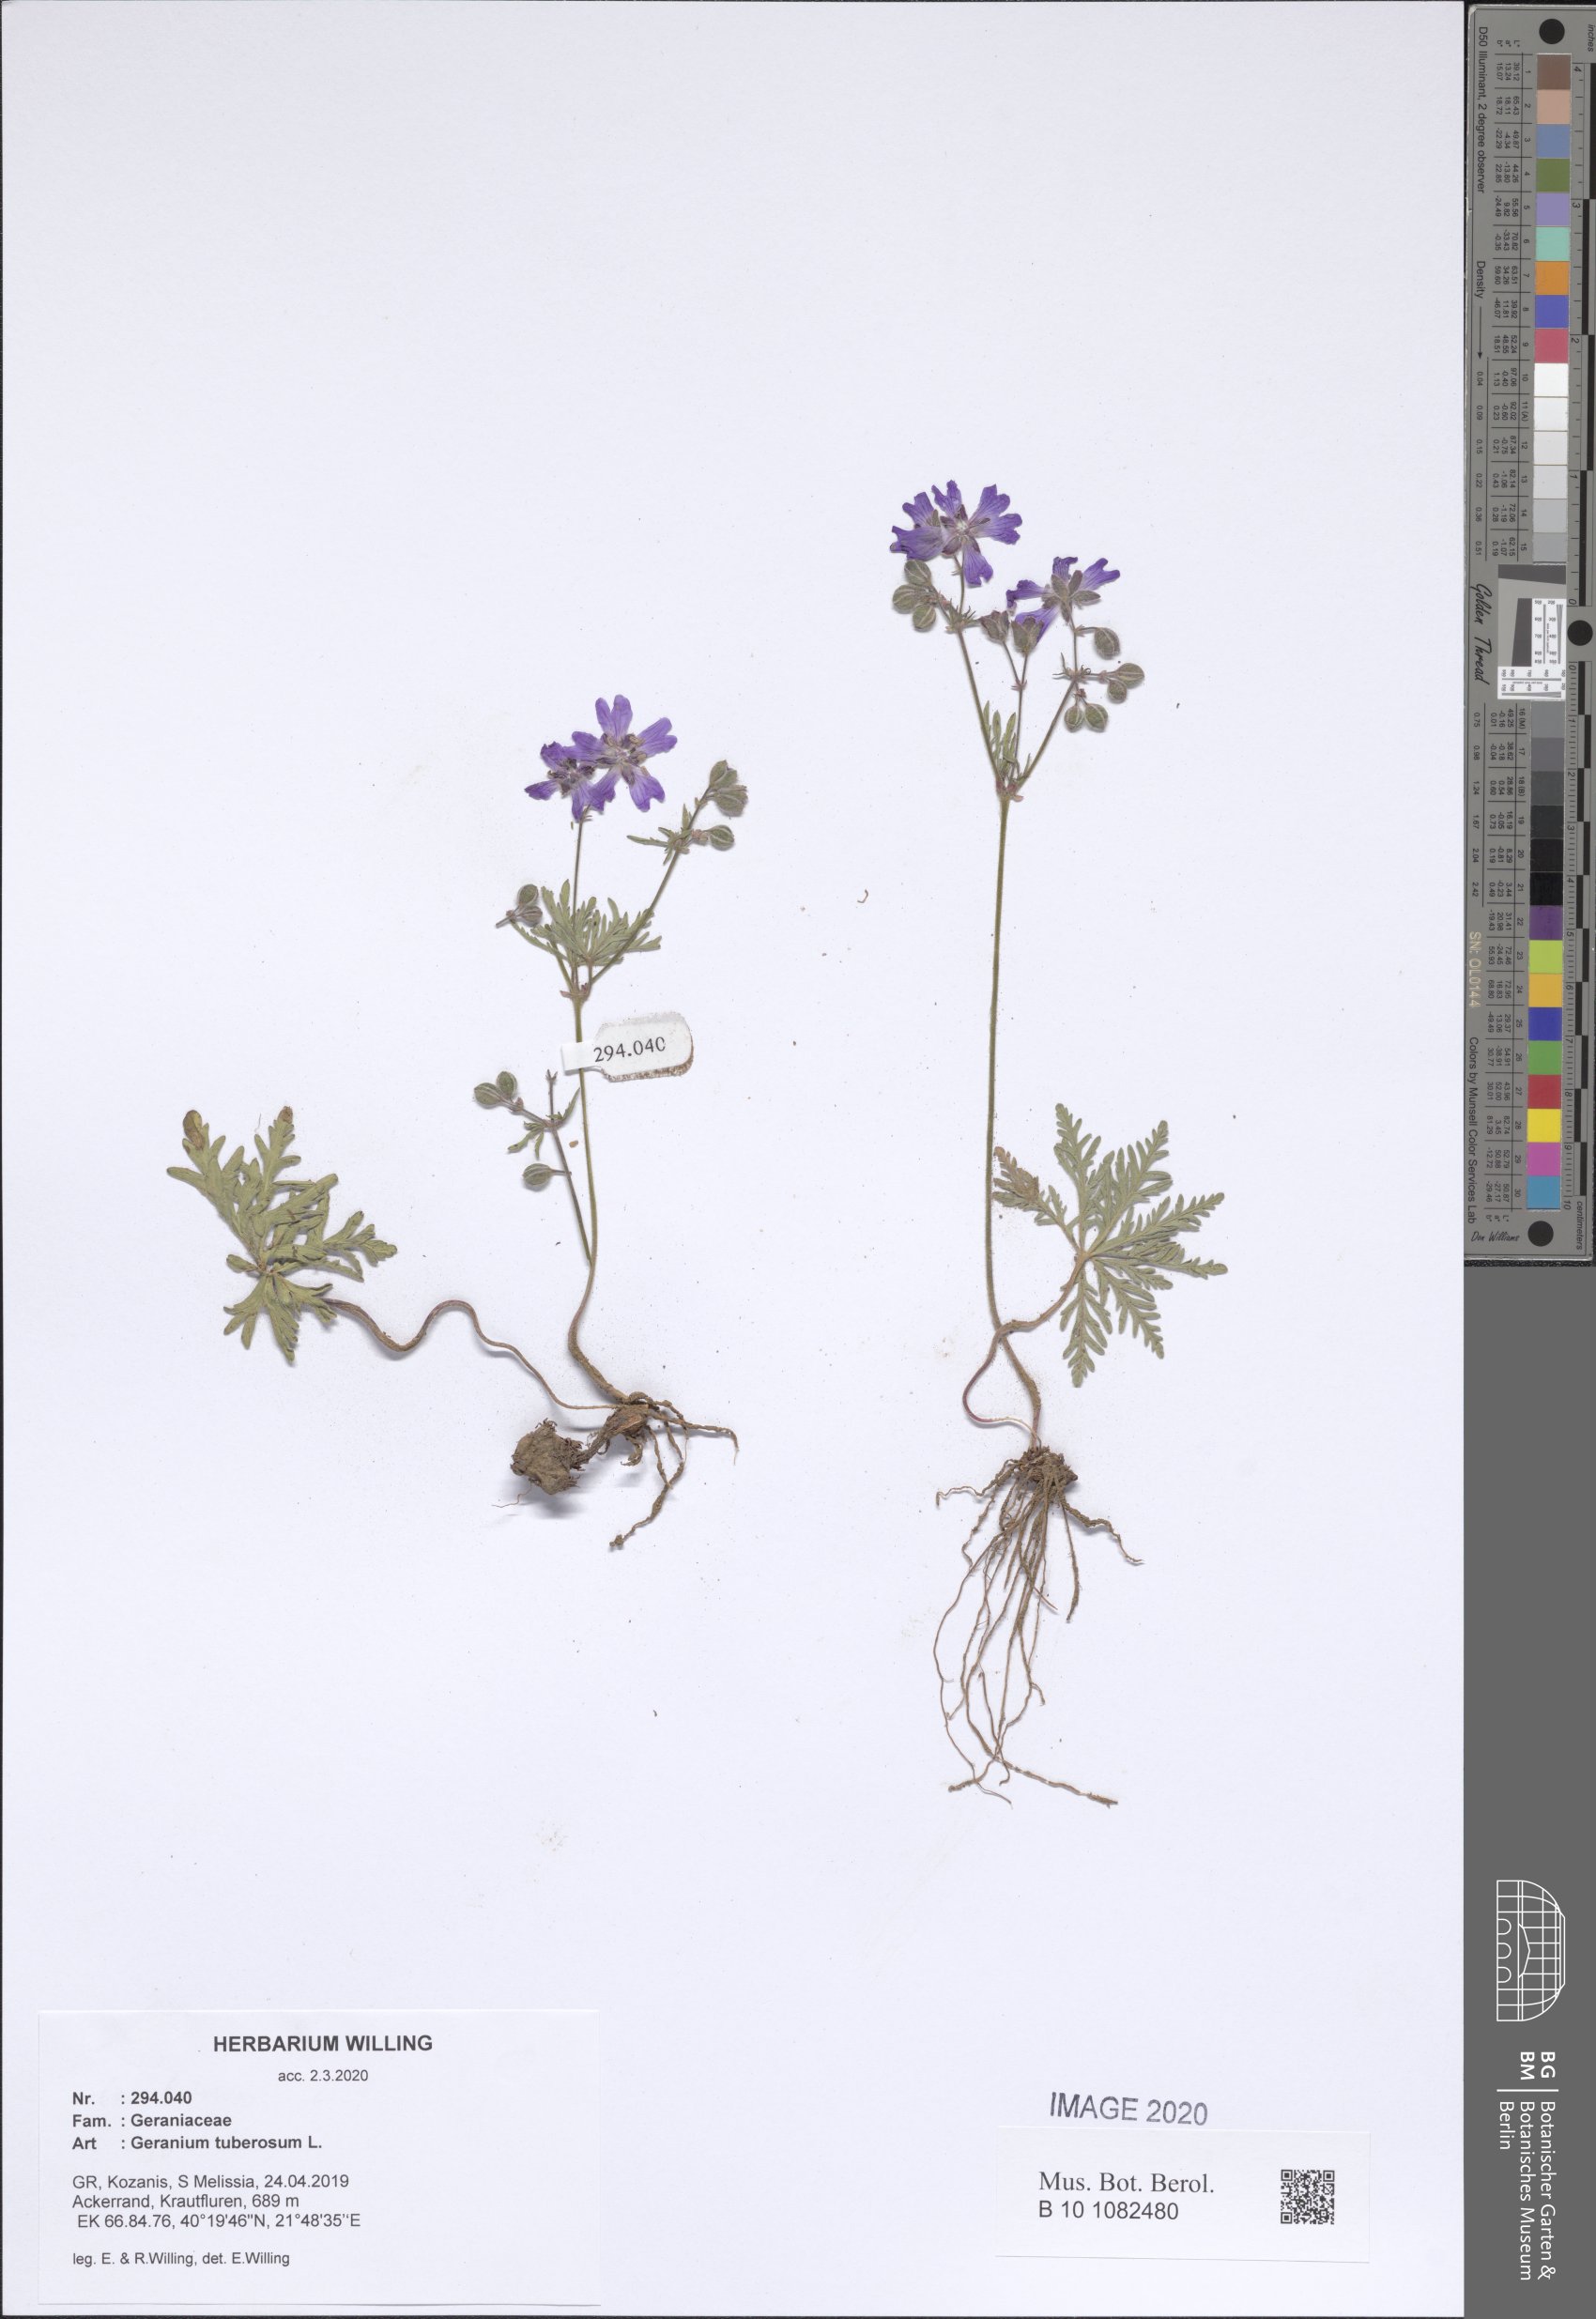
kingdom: Plantae
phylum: Tracheophyta
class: Magnoliopsida
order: Geraniales
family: Geraniaceae
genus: Geranium
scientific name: Geranium tuberosum
